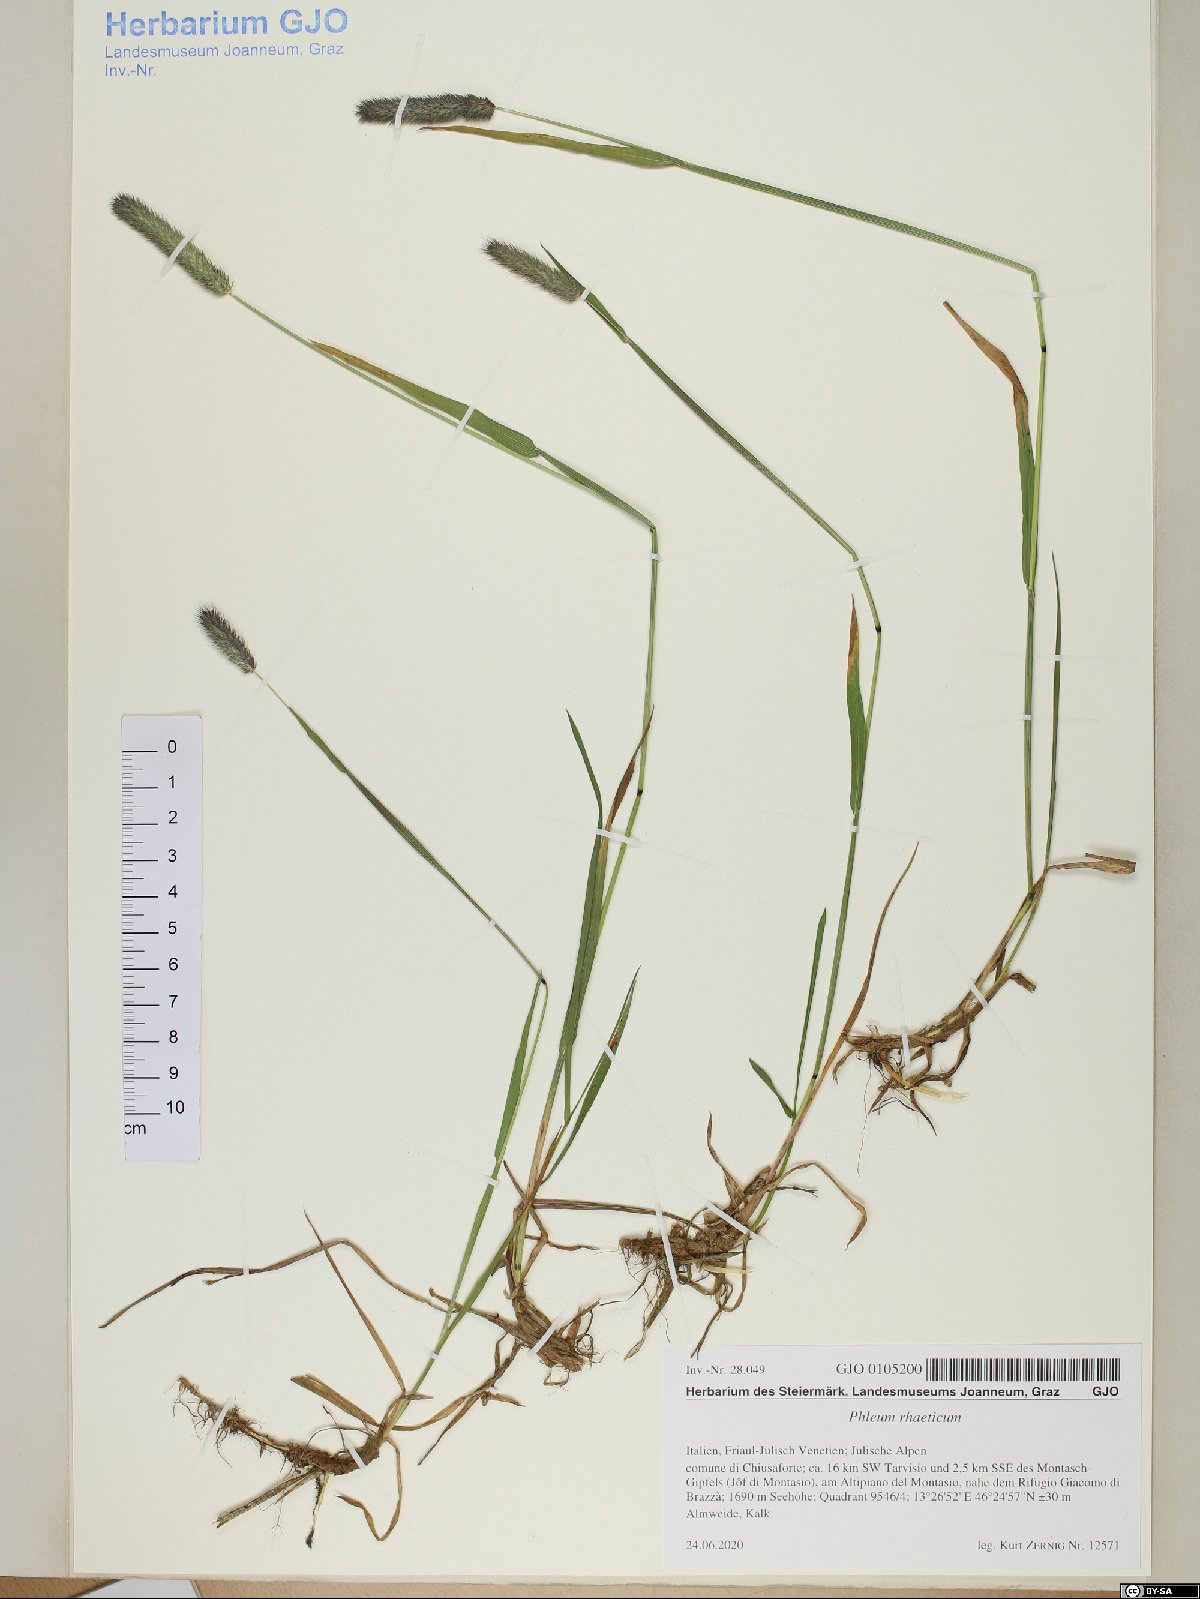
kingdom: Plantae
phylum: Tracheophyta
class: Liliopsida
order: Poales
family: Poaceae
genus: Phleum
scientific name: Phleum alpinum
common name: Alpine cat's-tail
